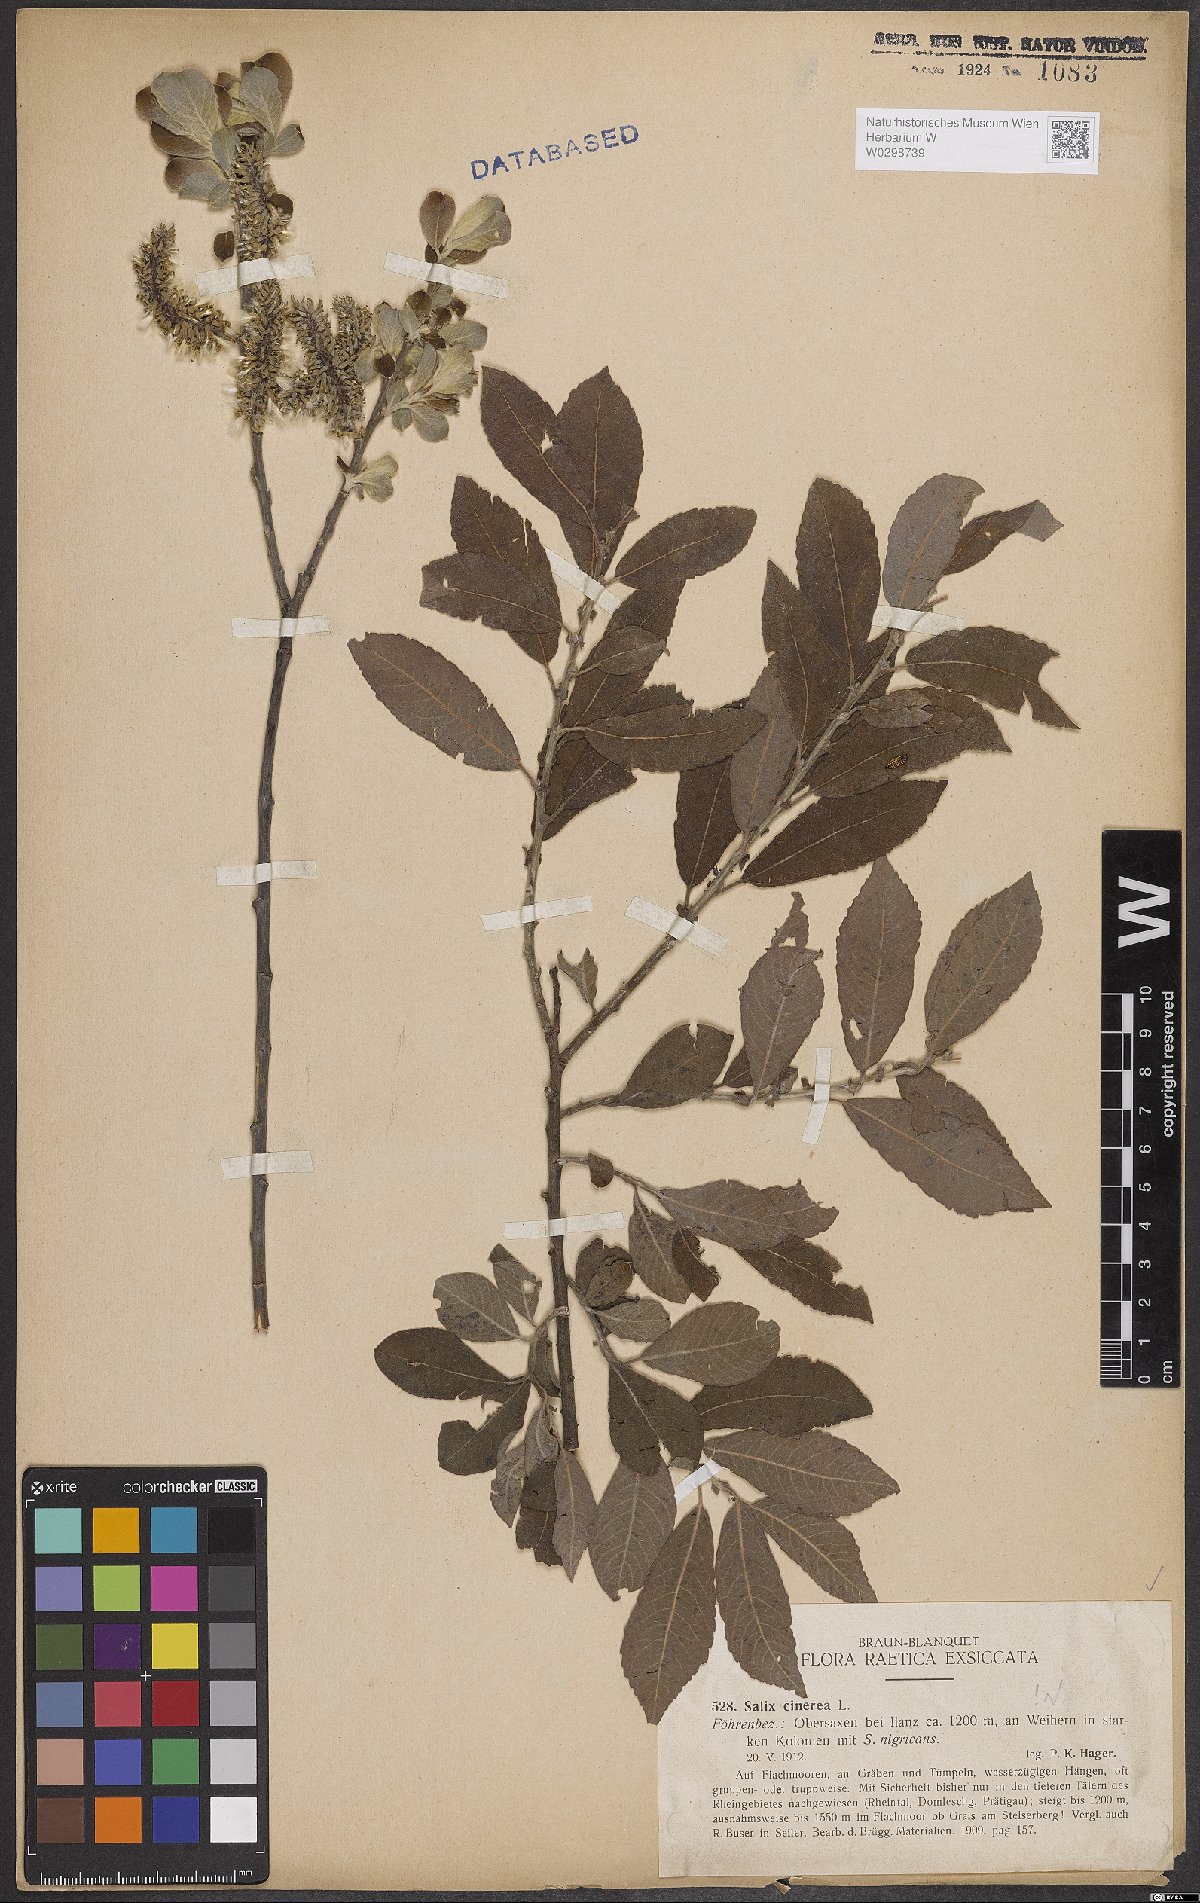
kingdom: Plantae
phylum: Tracheophyta
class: Magnoliopsida
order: Malpighiales
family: Salicaceae
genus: Salix
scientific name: Salix cinerea
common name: Common sallow
